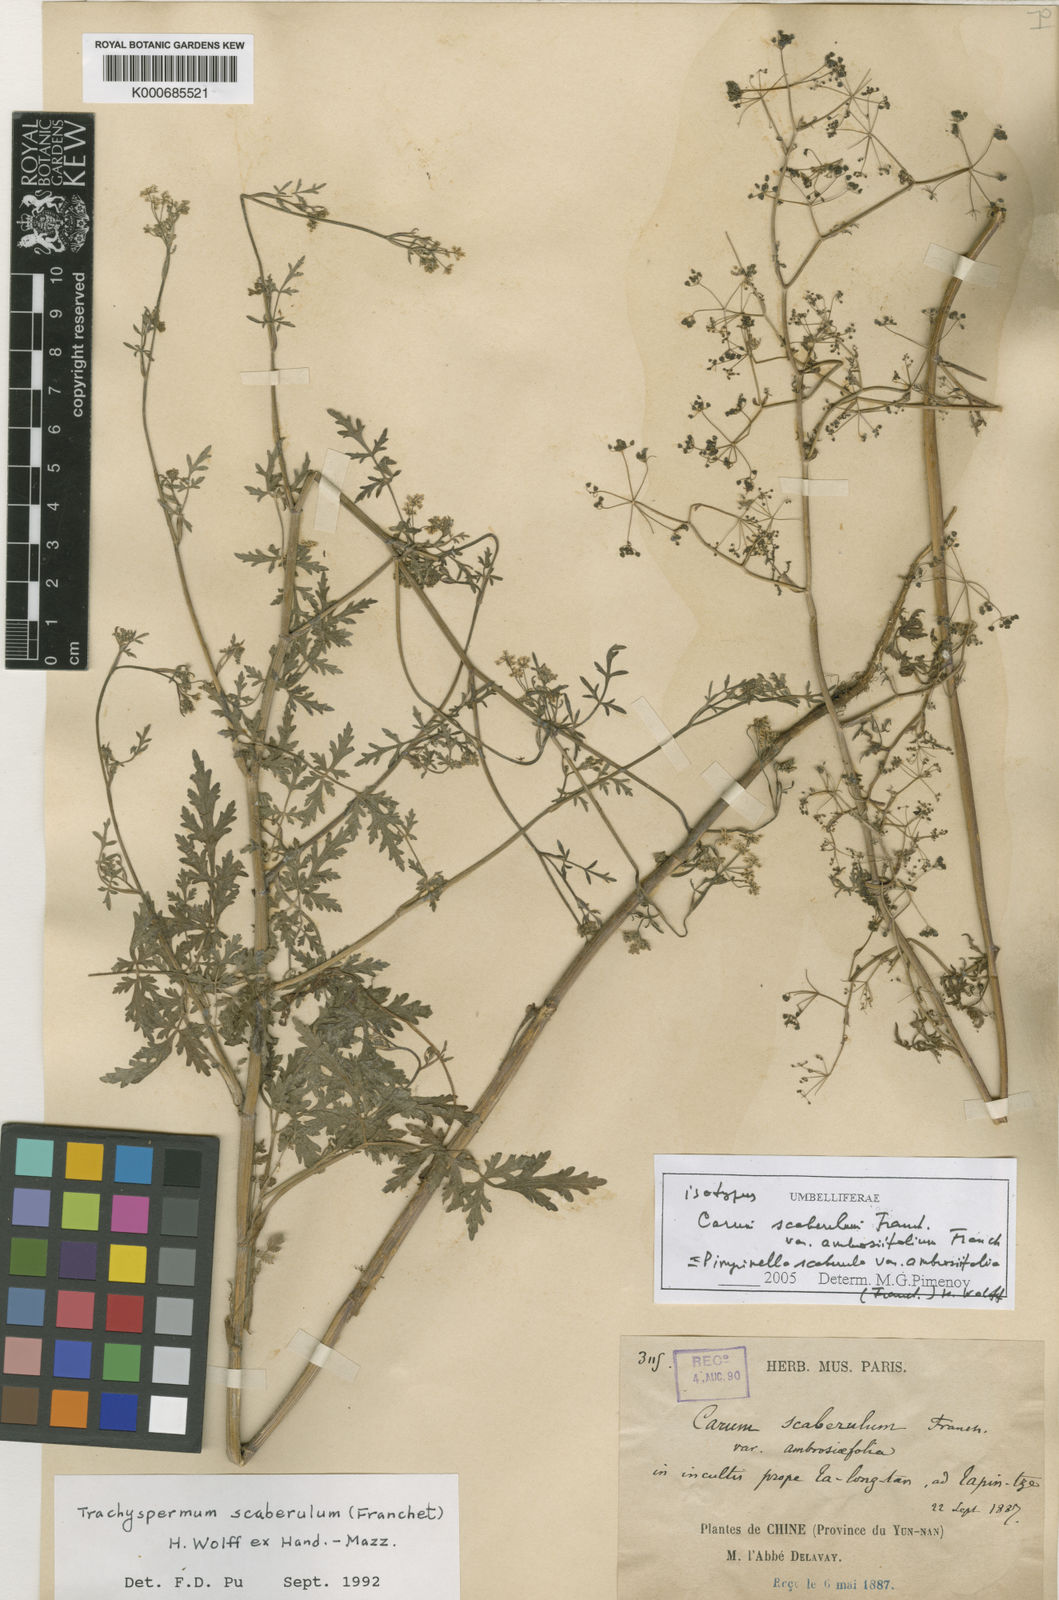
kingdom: Plantae
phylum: Tracheophyta
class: Magnoliopsida
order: Apiales
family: Apiaceae
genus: Pimpinella
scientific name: Pimpinella
